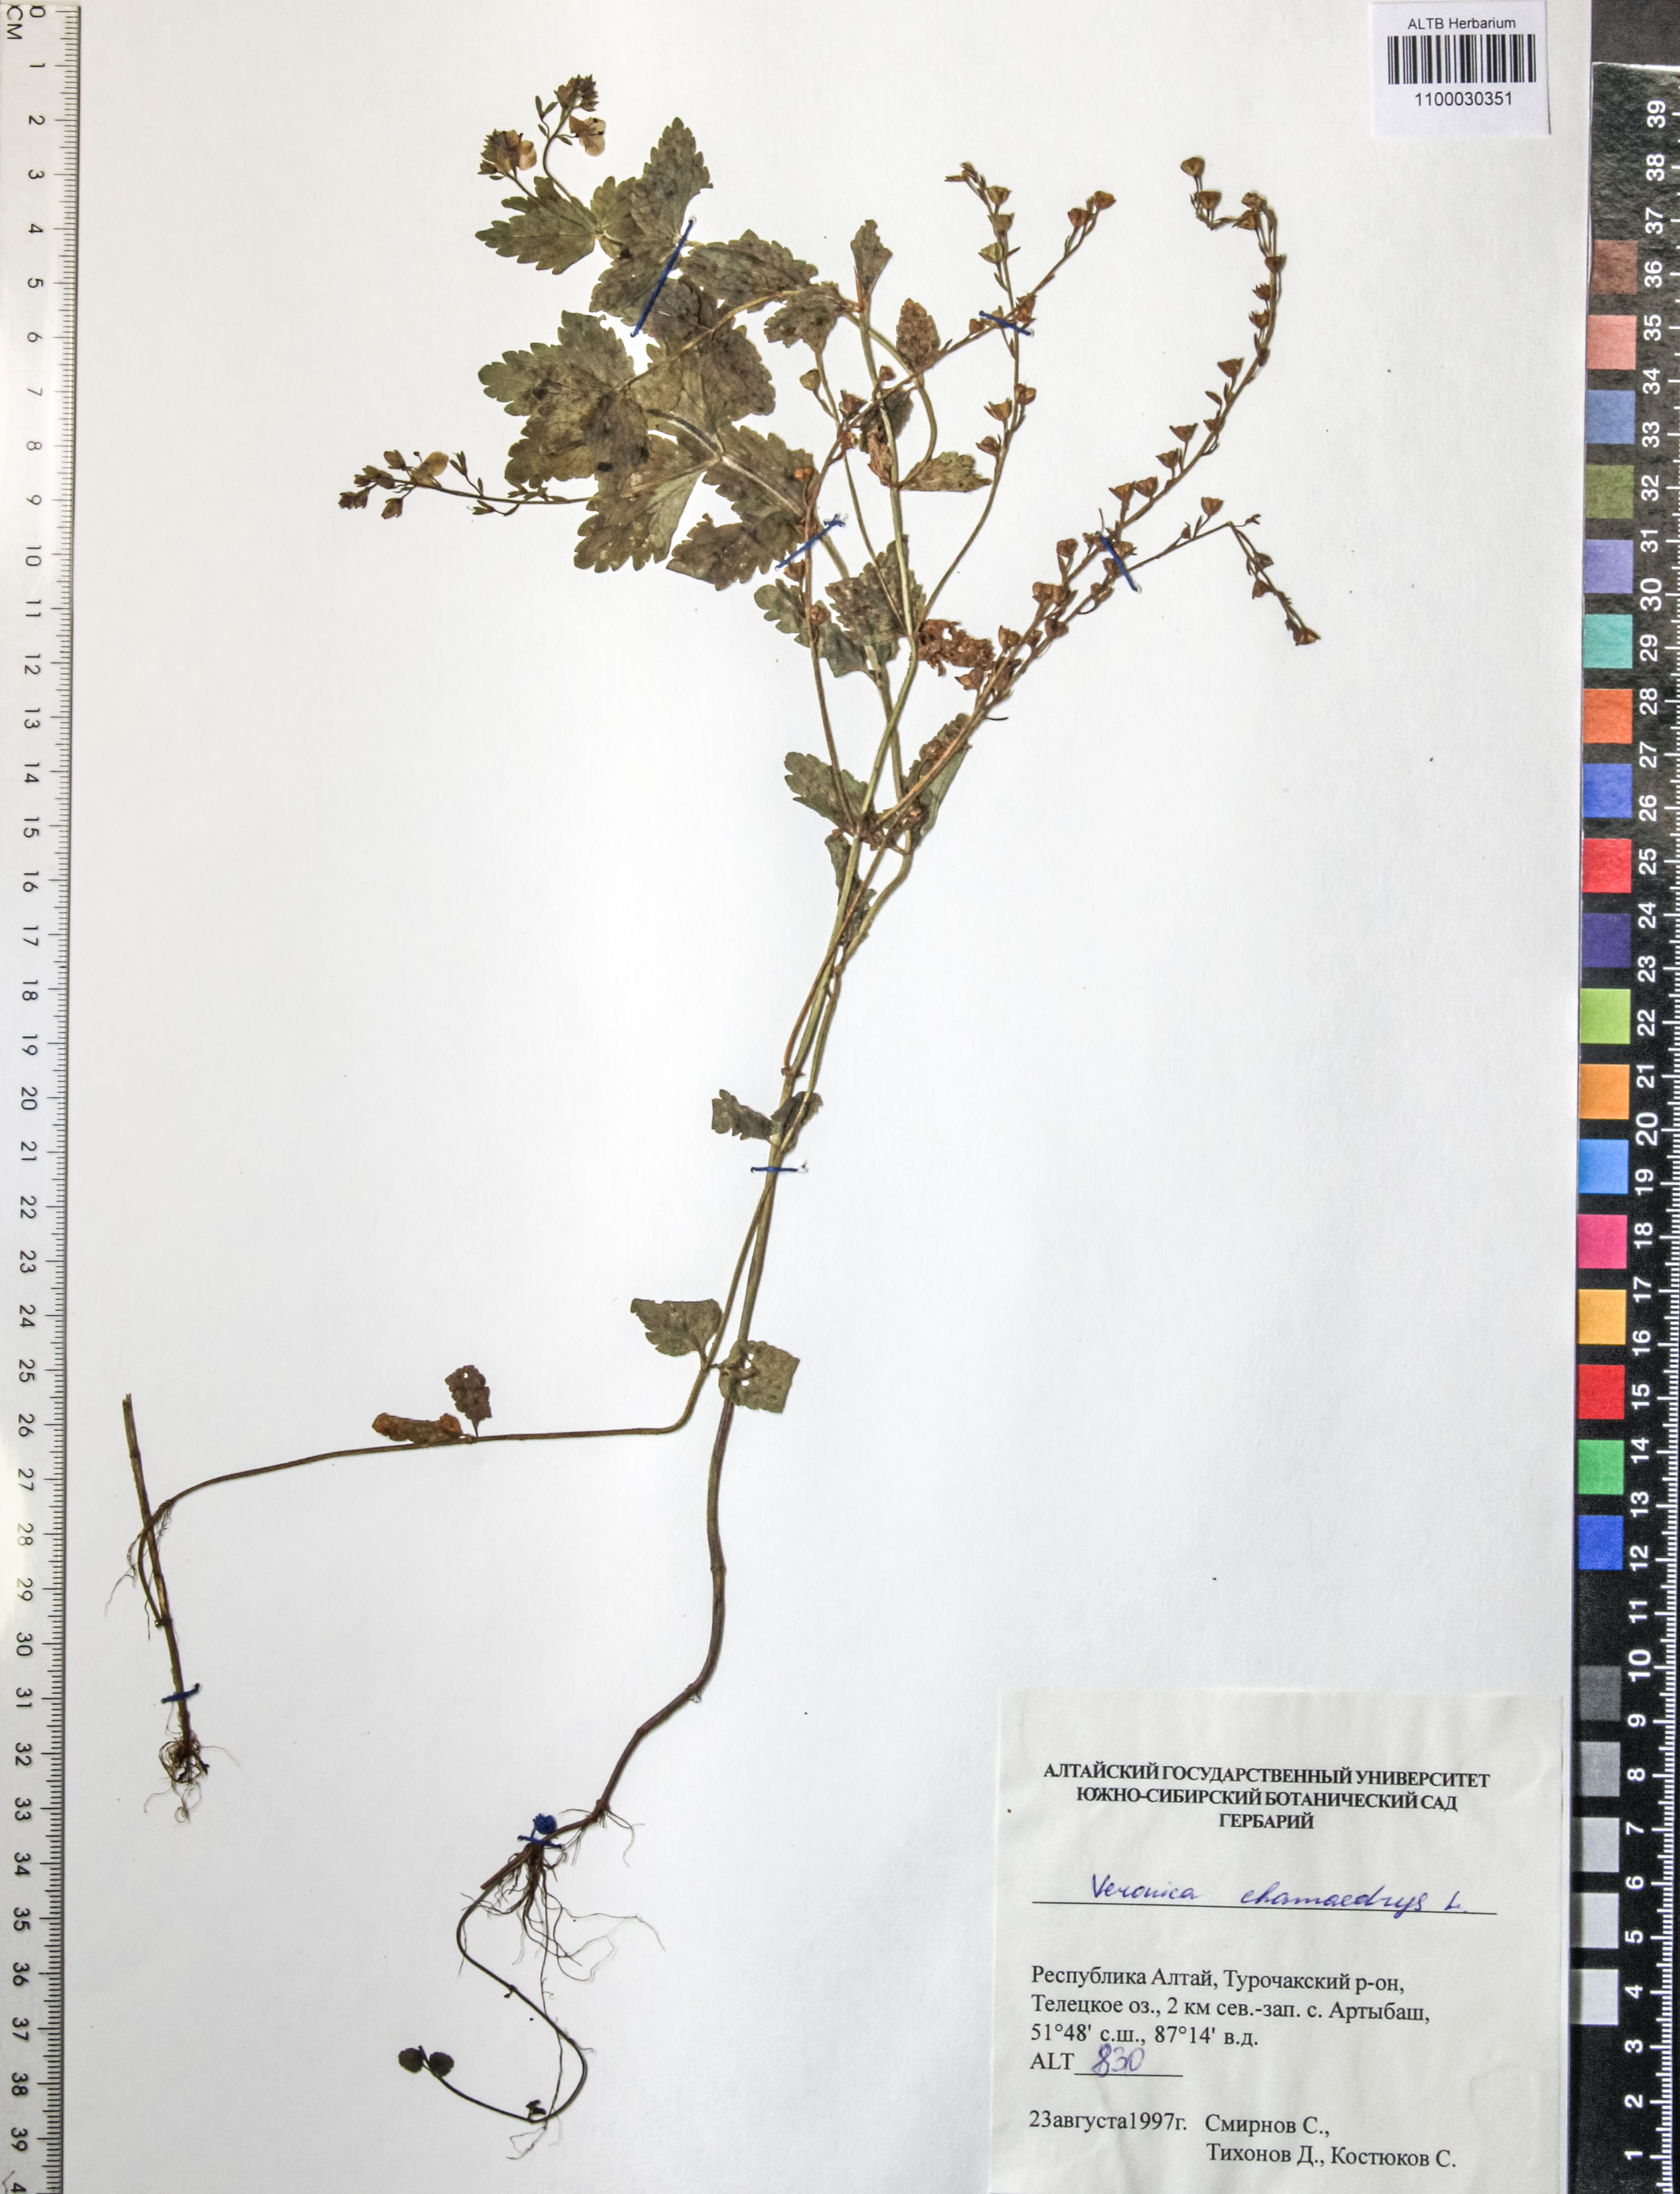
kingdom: Plantae
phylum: Tracheophyta
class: Magnoliopsida
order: Lamiales
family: Plantaginaceae
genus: Veronica
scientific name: Veronica chamaedrys
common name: Germander speedwell
